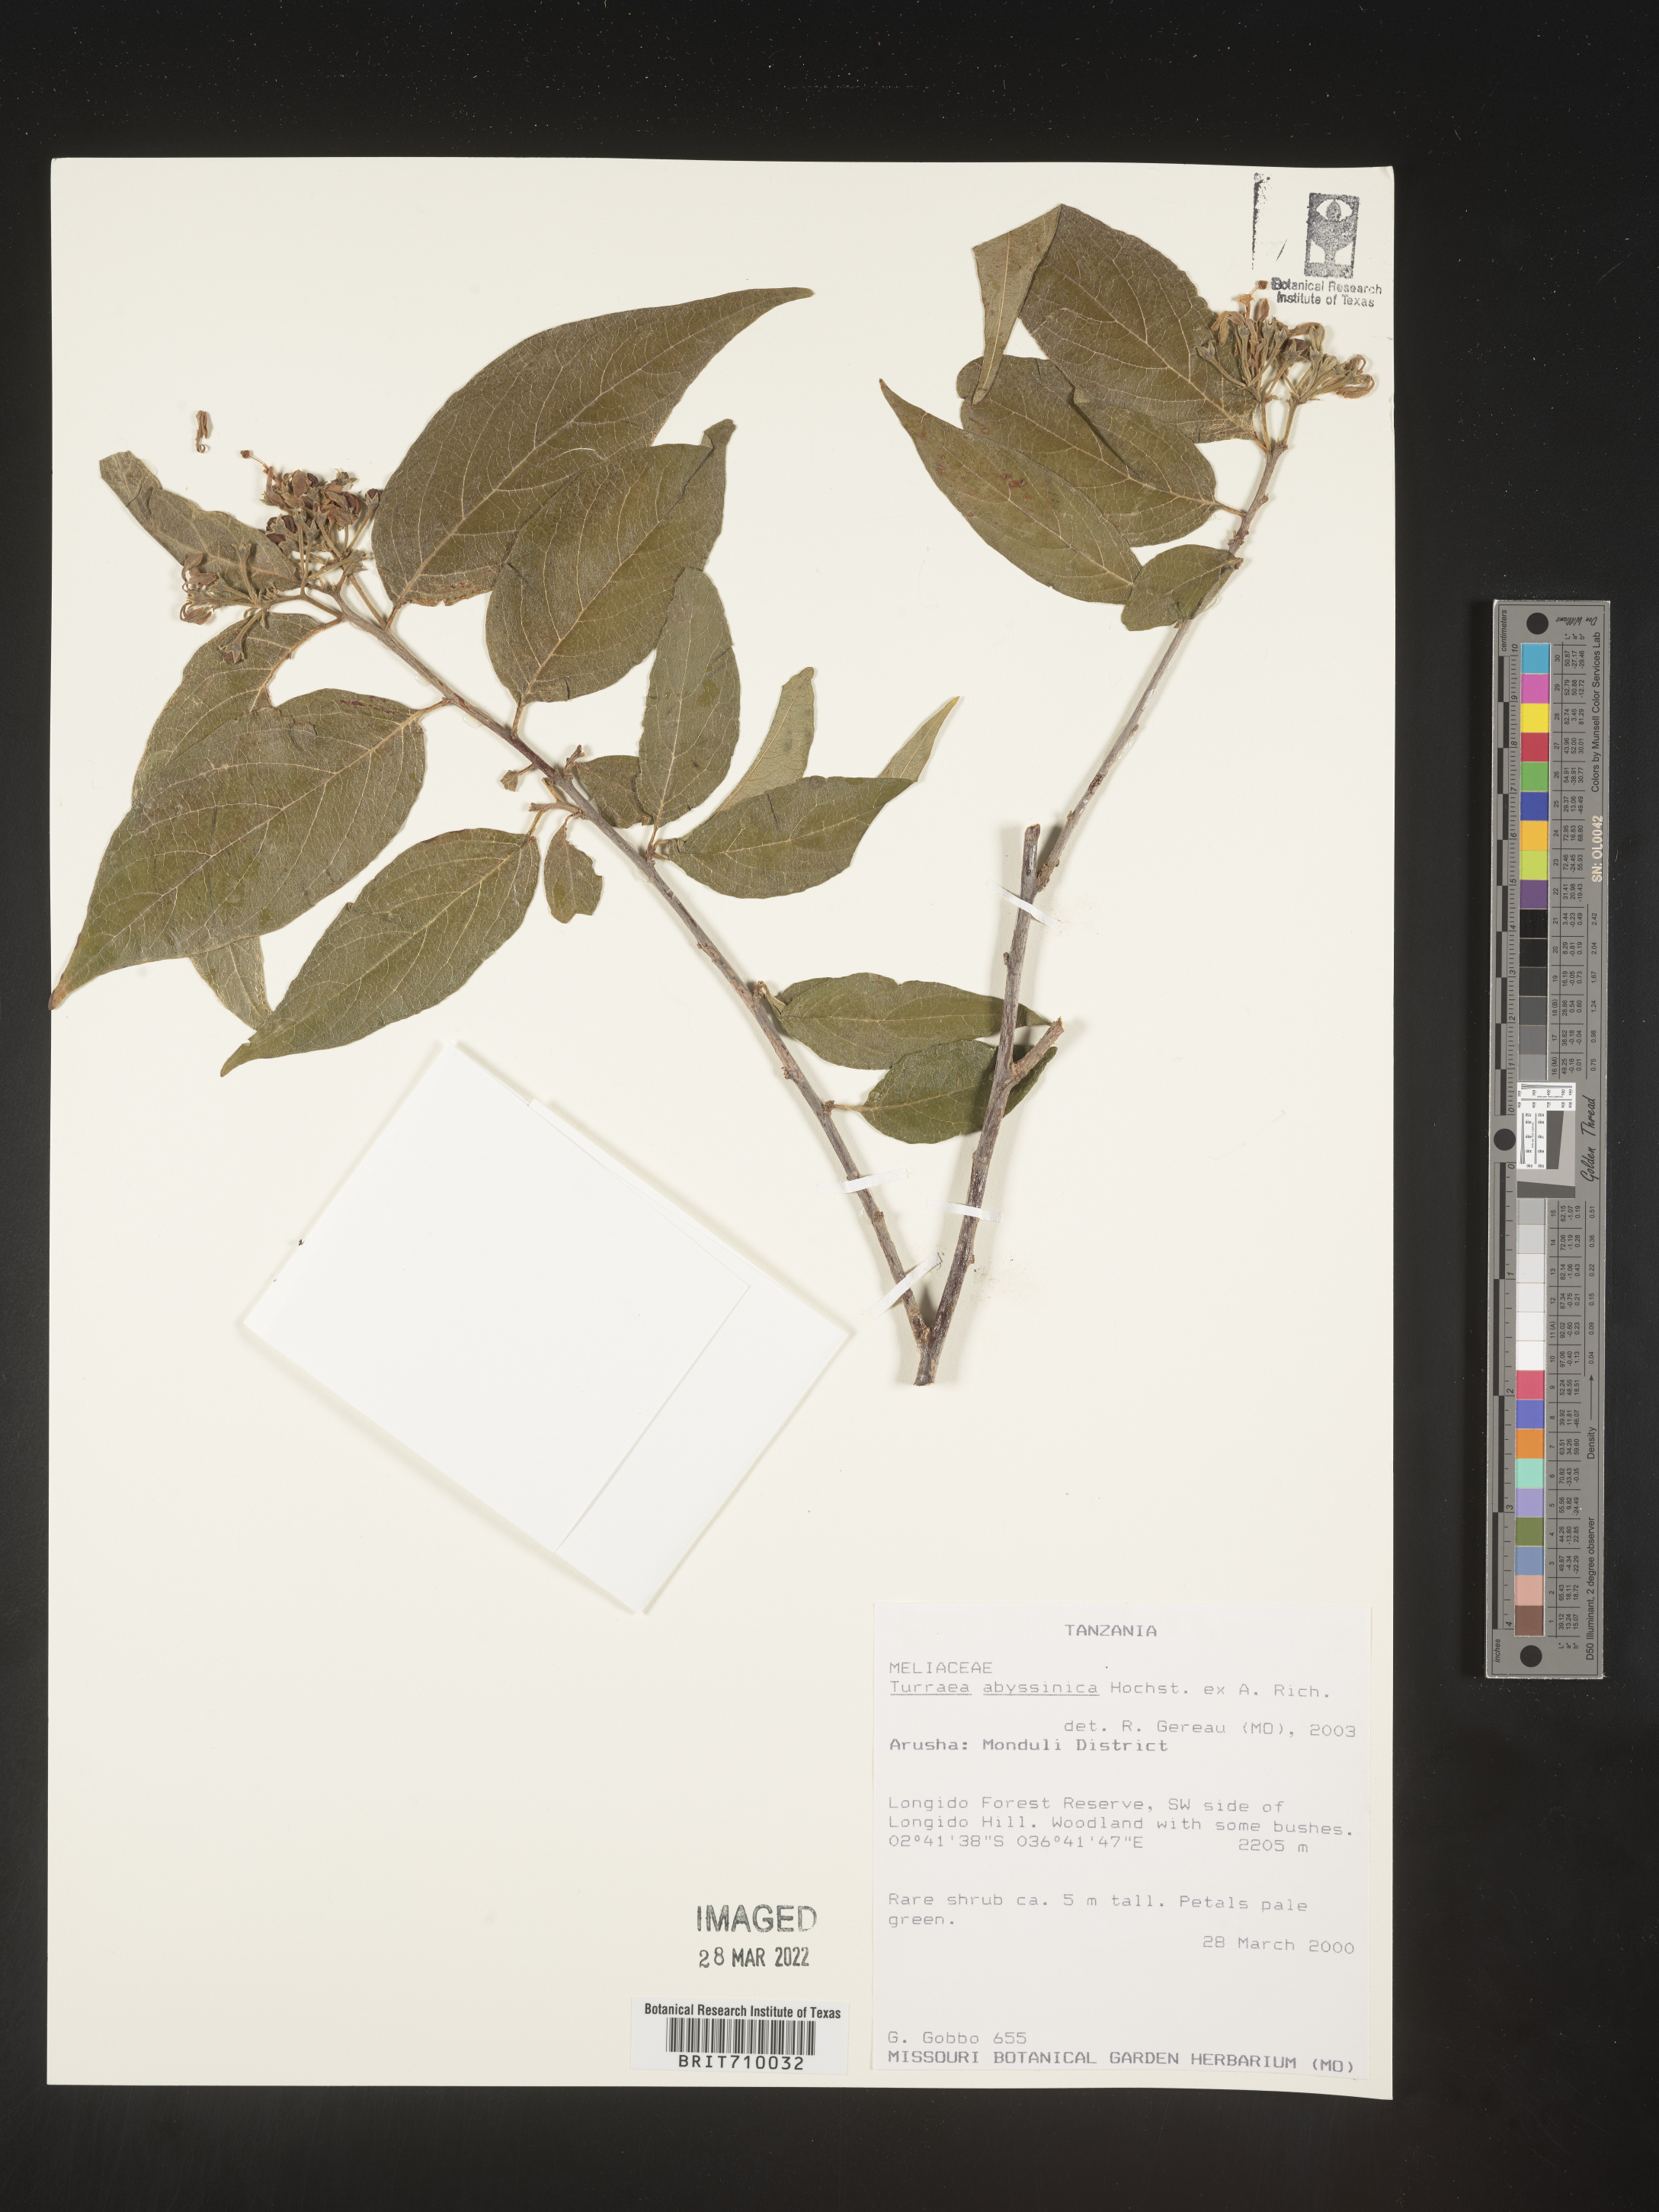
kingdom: Plantae
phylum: Tracheophyta
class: Magnoliopsida
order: Sapindales
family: Meliaceae
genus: Turraea
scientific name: Turraea
